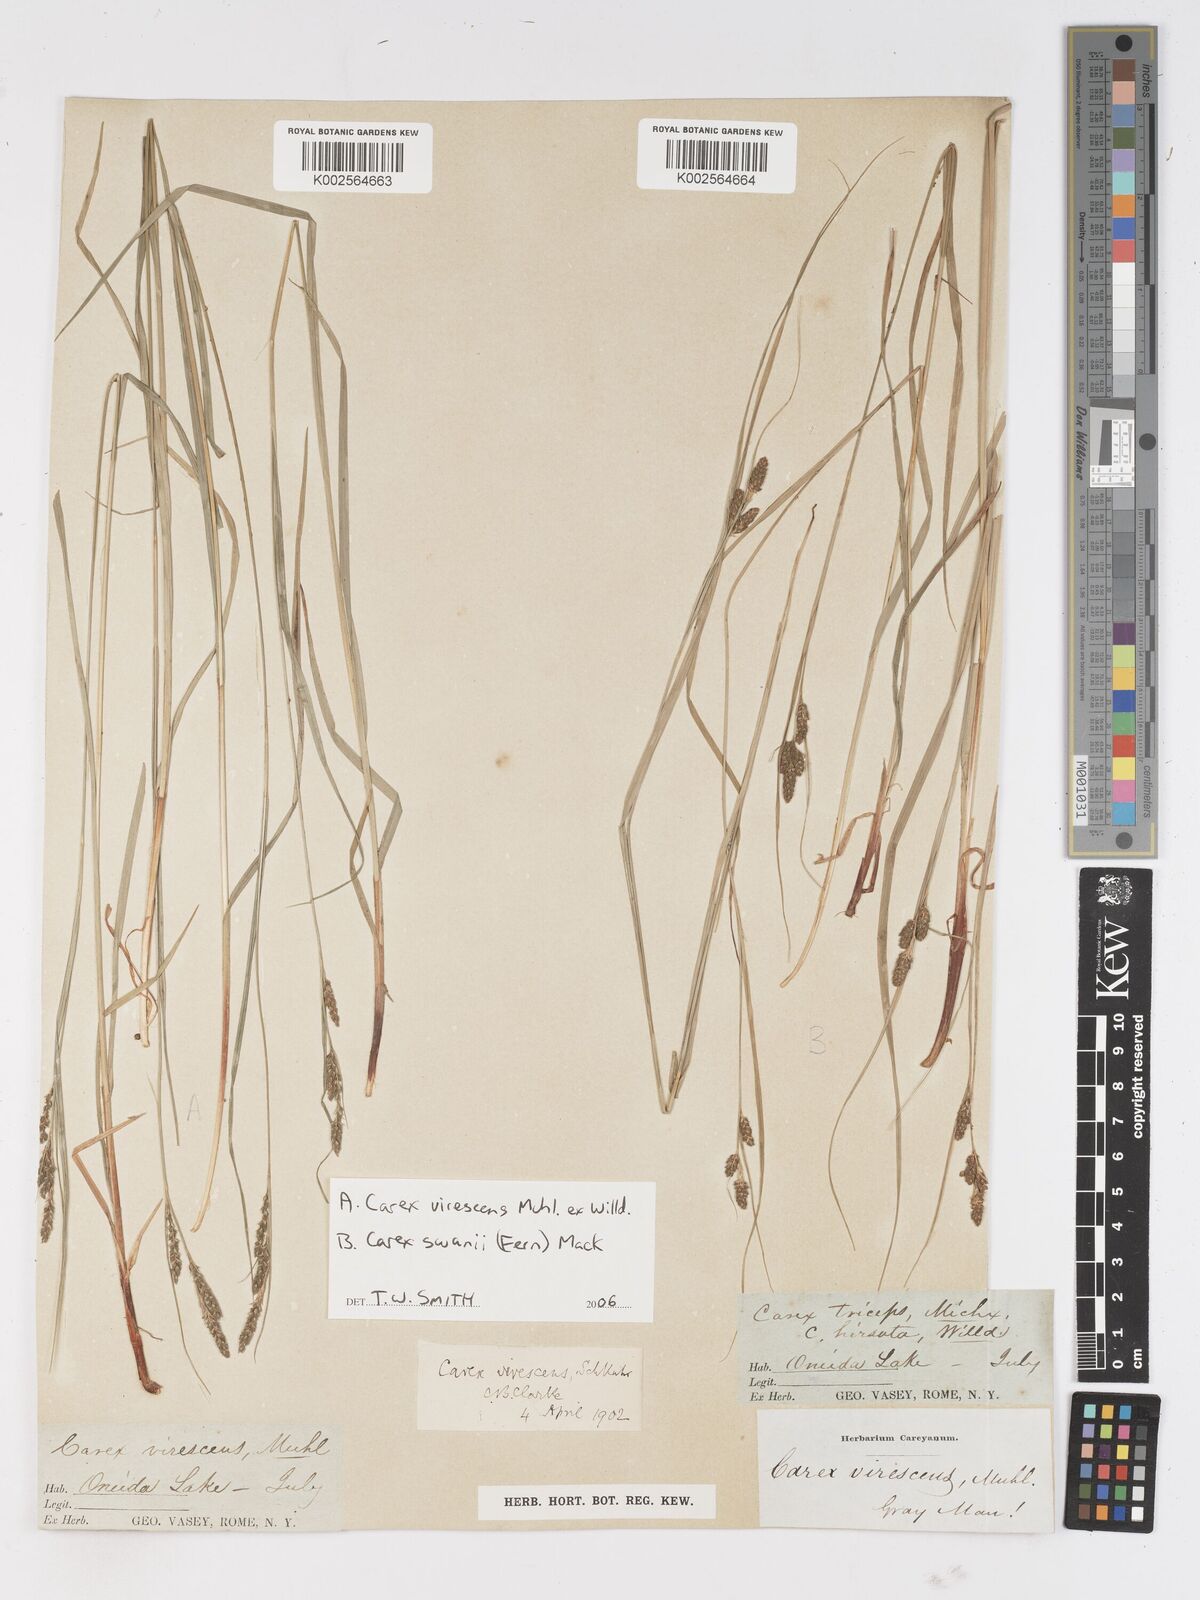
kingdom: Plantae
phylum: Tracheophyta
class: Liliopsida
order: Poales
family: Cyperaceae
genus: Carex
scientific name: Carex
